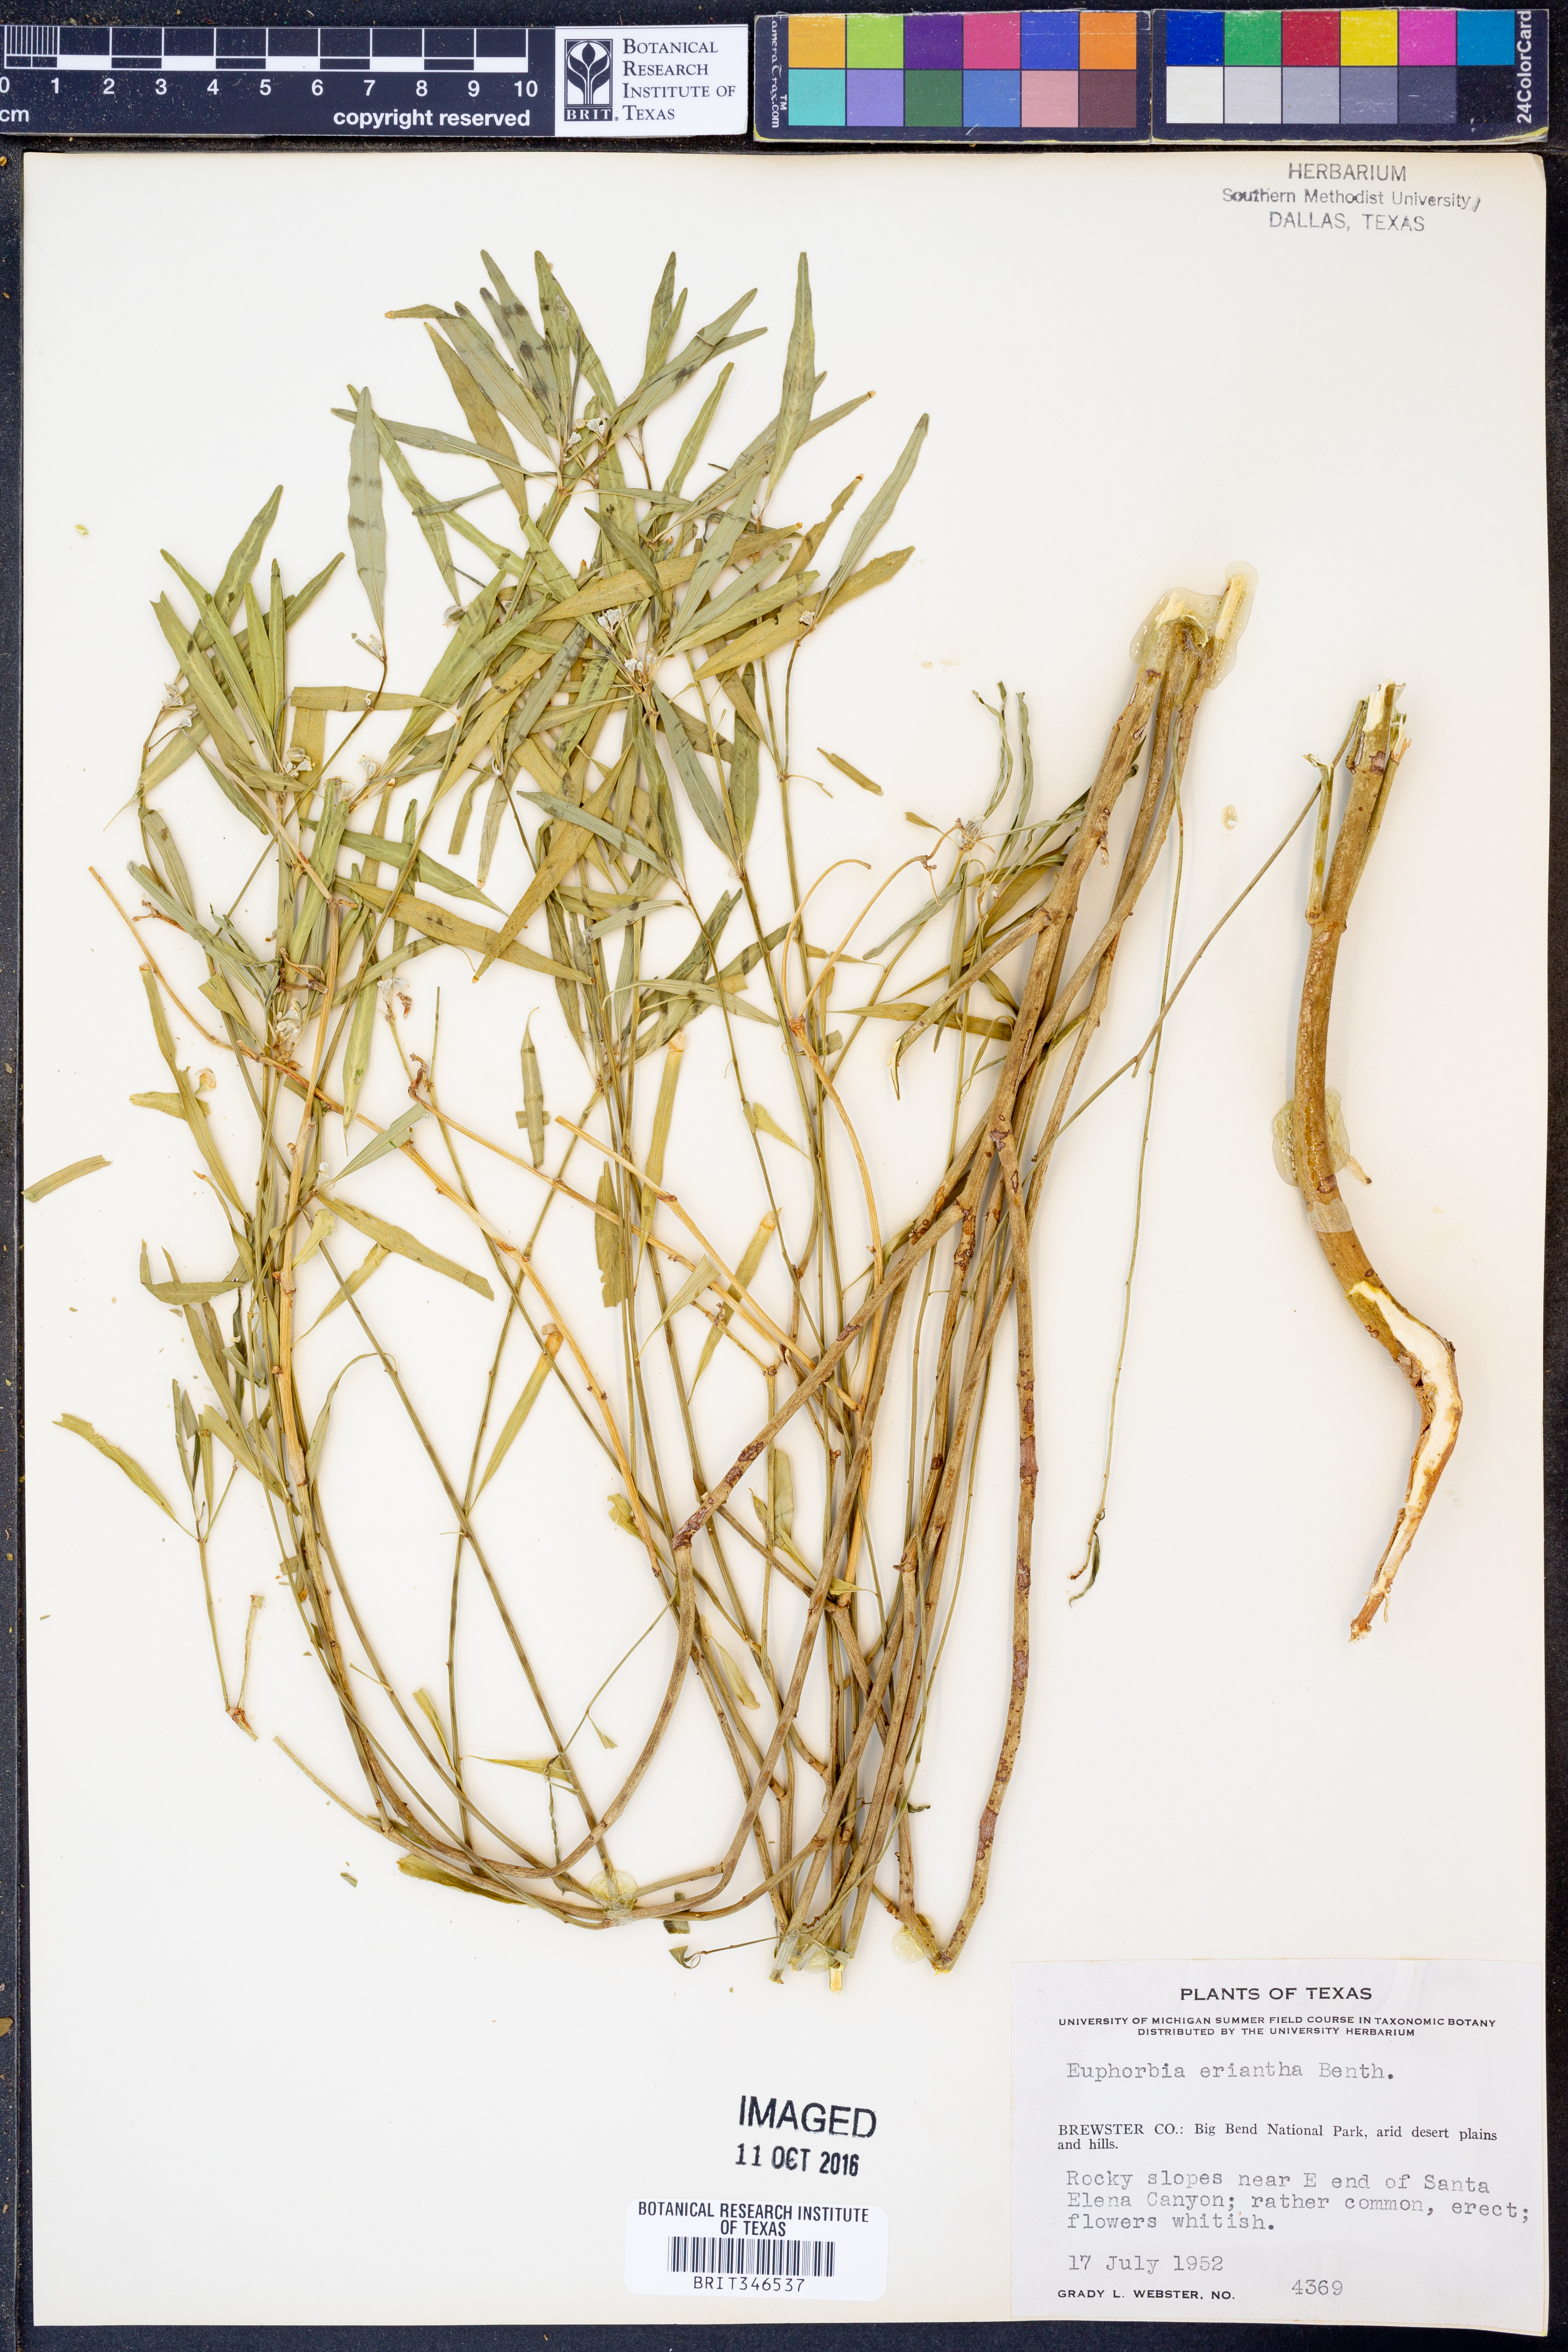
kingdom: Plantae
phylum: Tracheophyta
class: Magnoliopsida
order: Malpighiales
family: Euphorbiaceae
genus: Euphorbia
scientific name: Euphorbia eriantha
